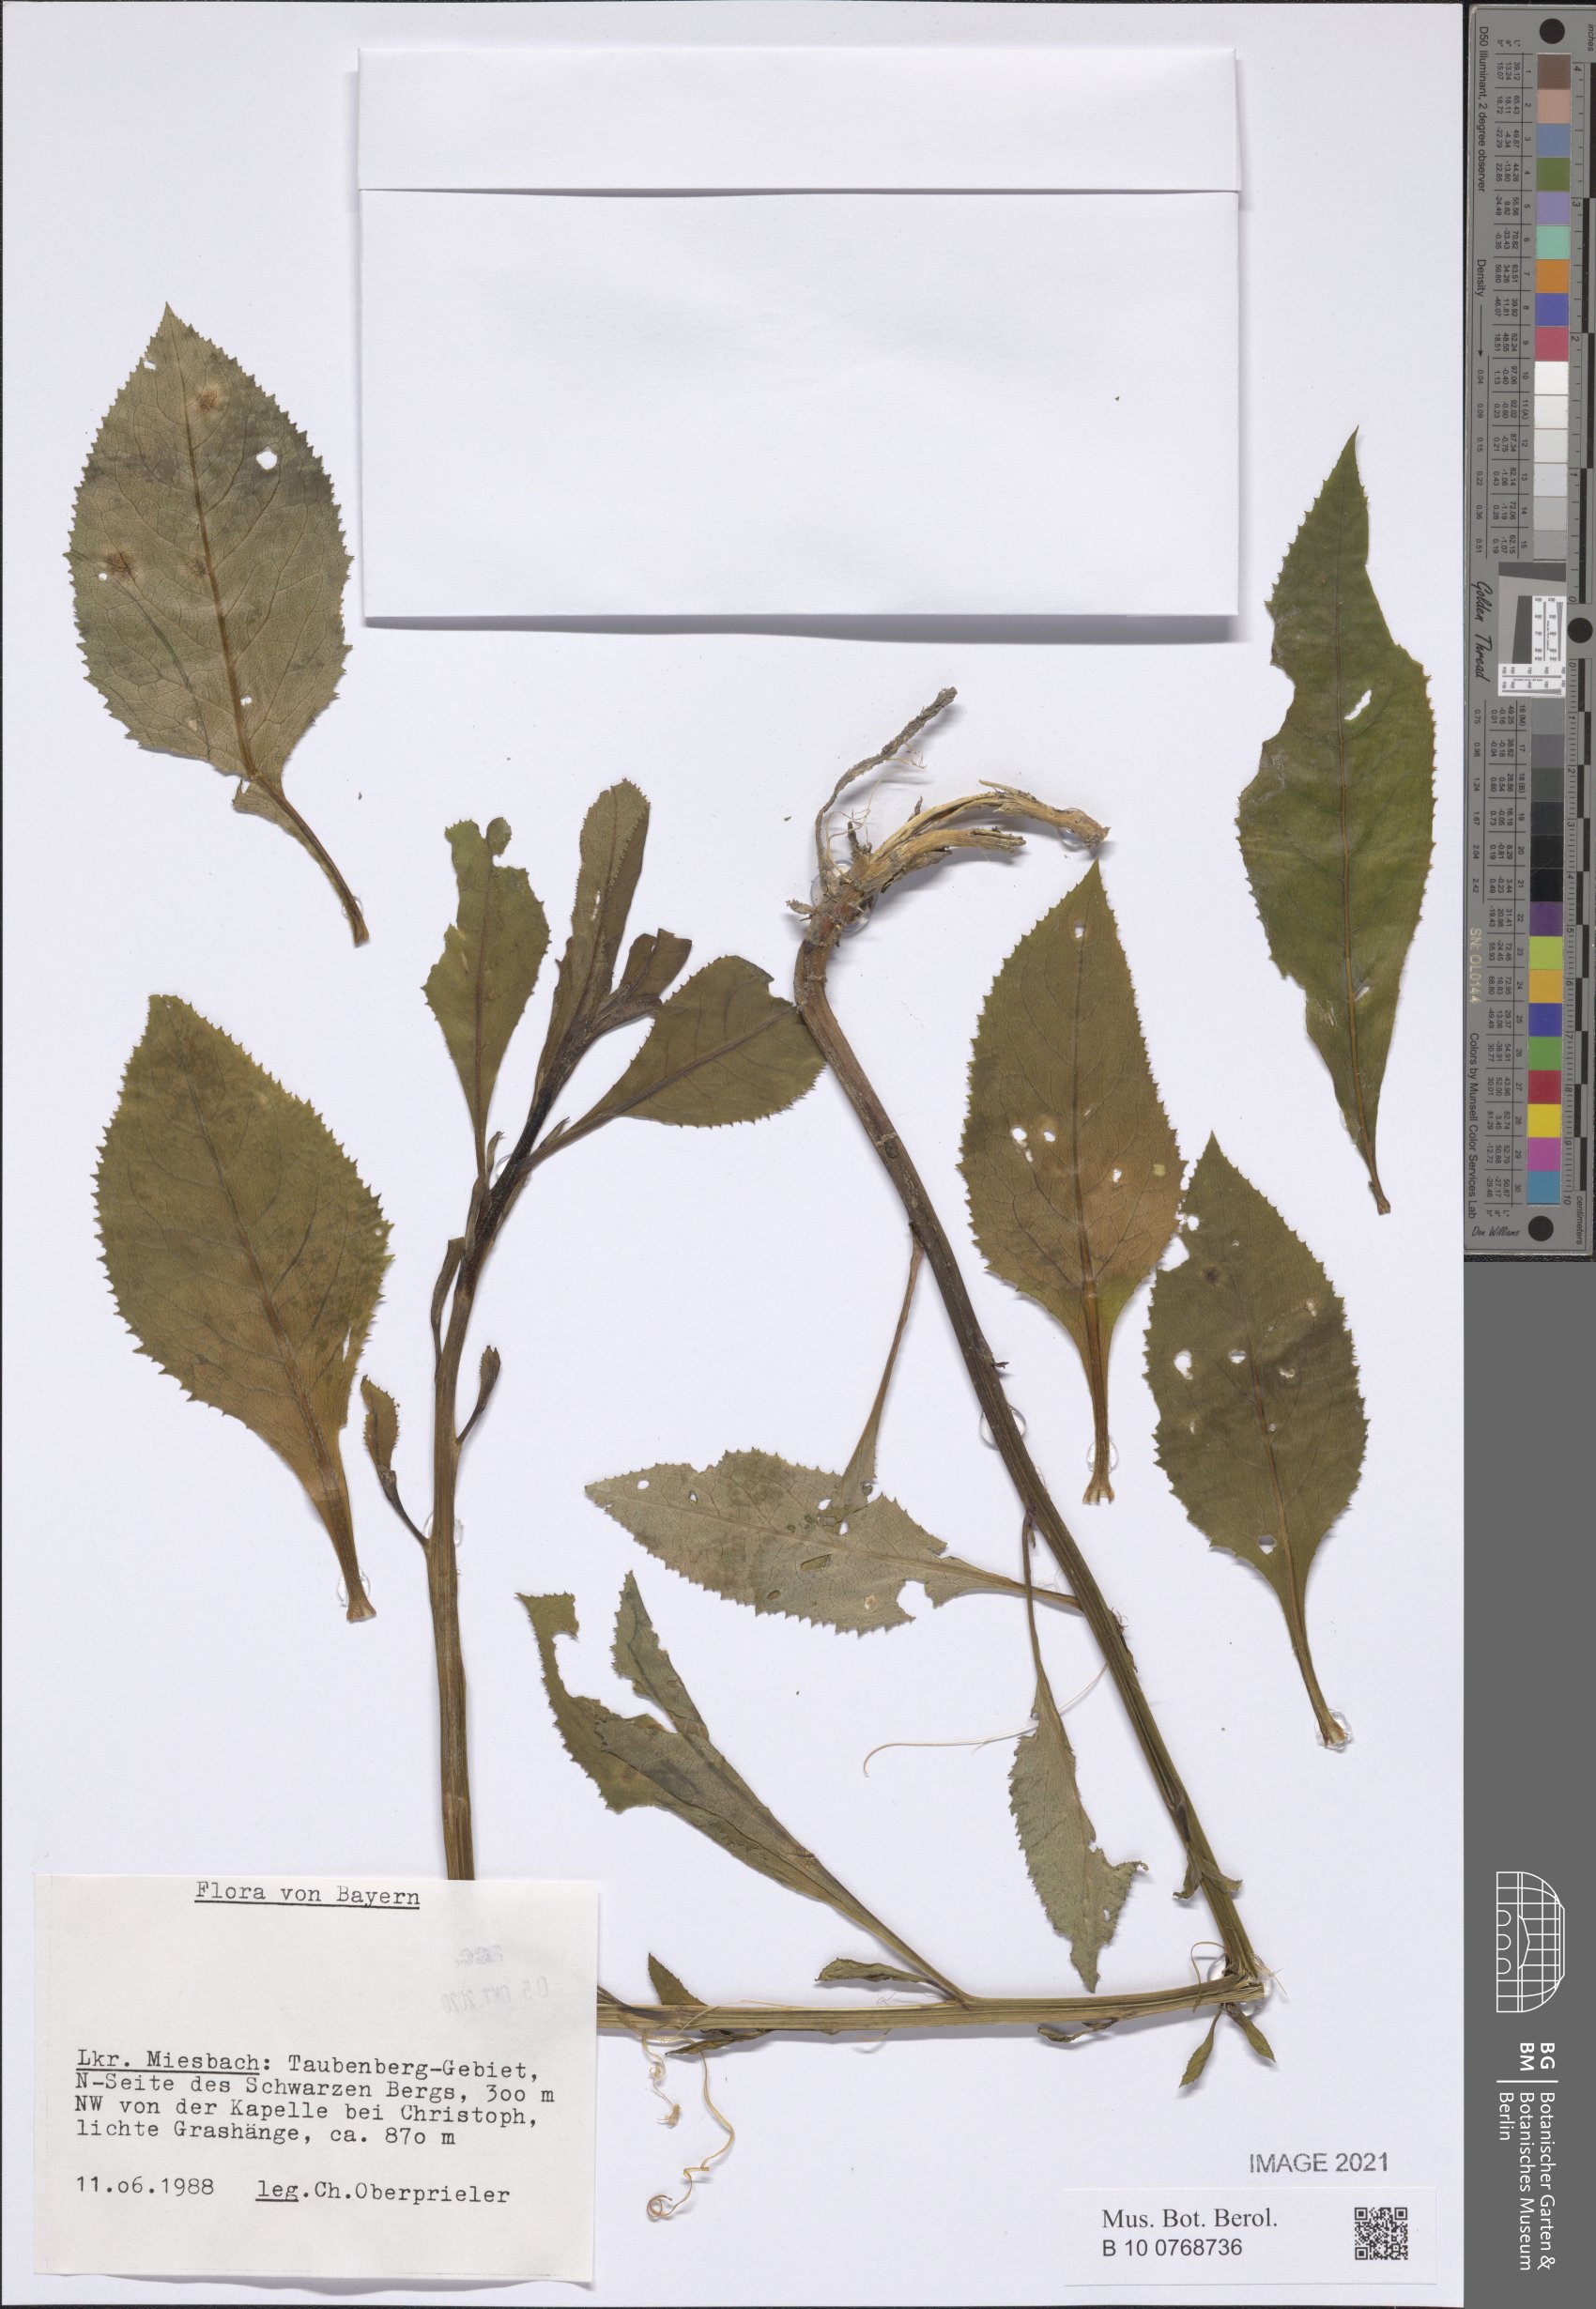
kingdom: Plantae
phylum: Tracheophyta
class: Magnoliopsida
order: Asterales
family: Asteraceae
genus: Senecio
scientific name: Senecio
